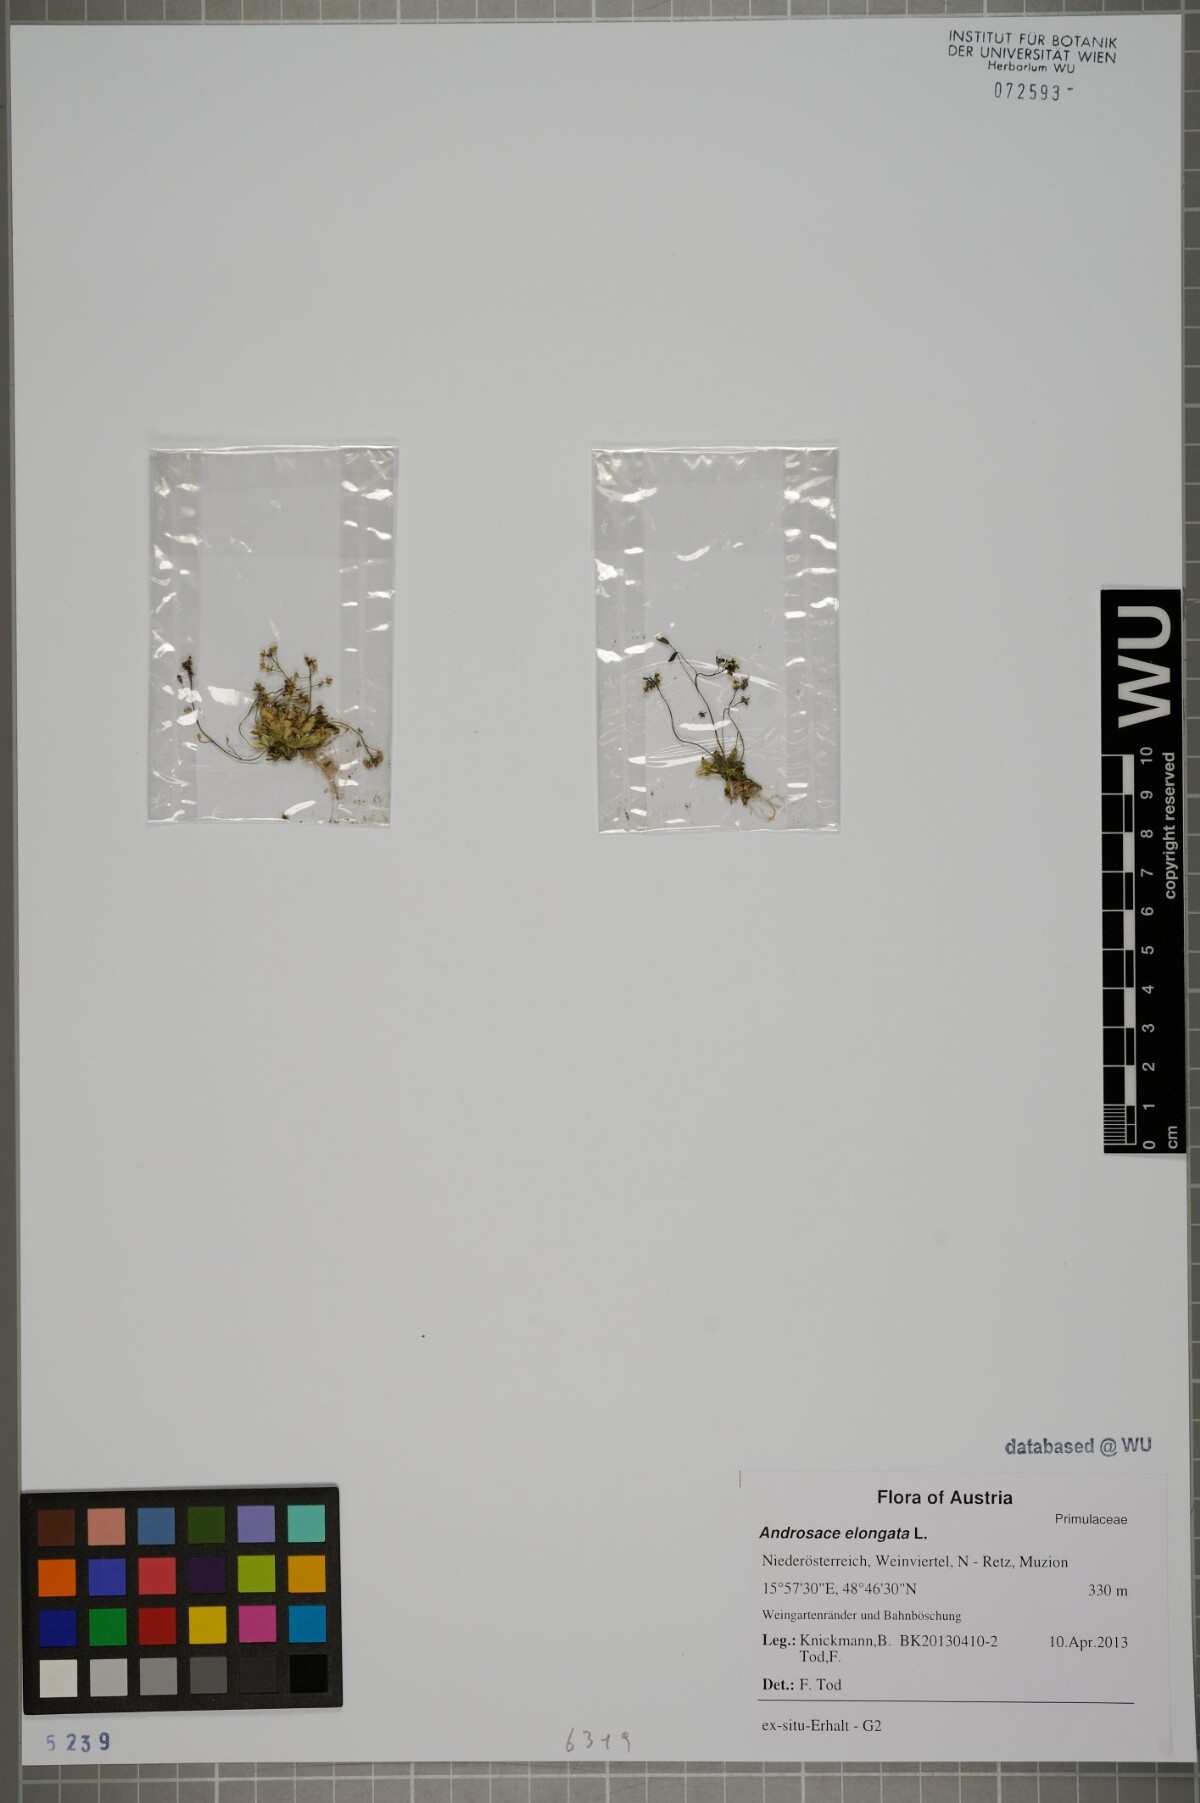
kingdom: Plantae
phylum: Tracheophyta
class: Magnoliopsida
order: Brassicales
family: Brassicaceae
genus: Draba
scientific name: Draba verna
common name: Spring draba
